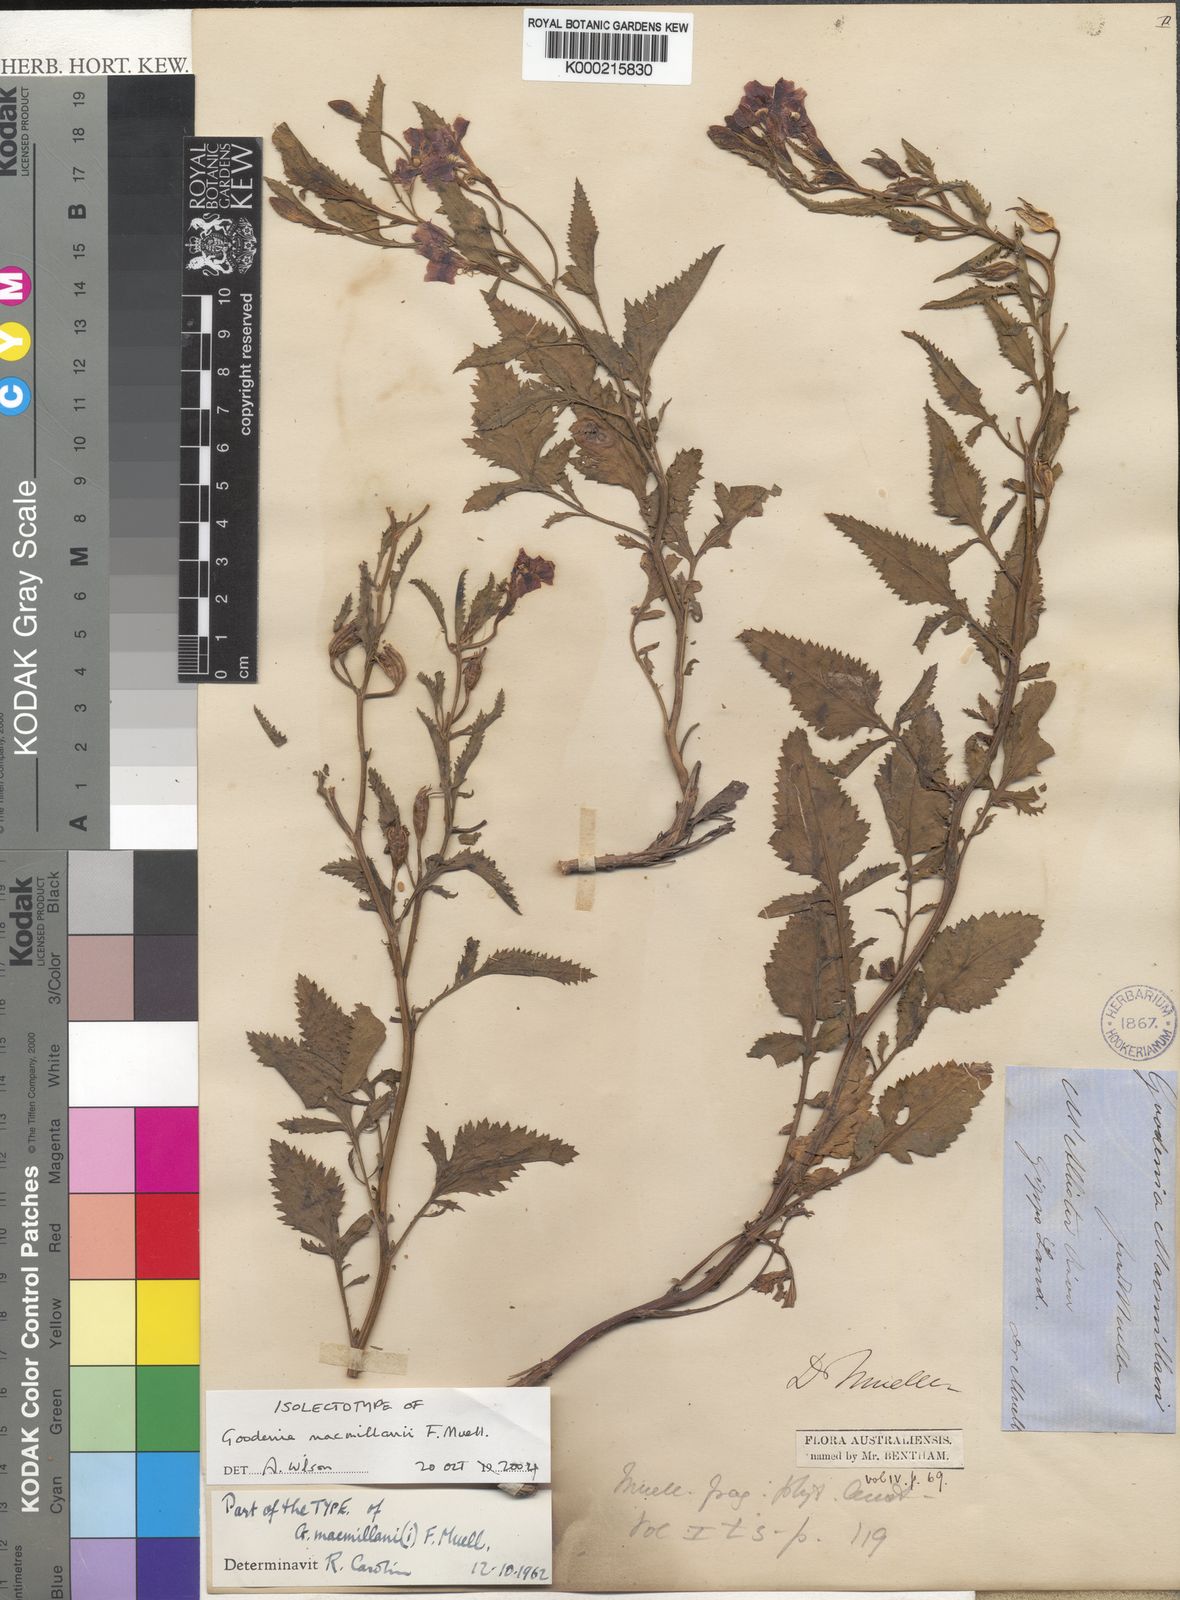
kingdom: Plantae
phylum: Tracheophyta
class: Magnoliopsida
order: Asterales
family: Goodeniaceae
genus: Goodenia
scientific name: Goodenia macmillanii
